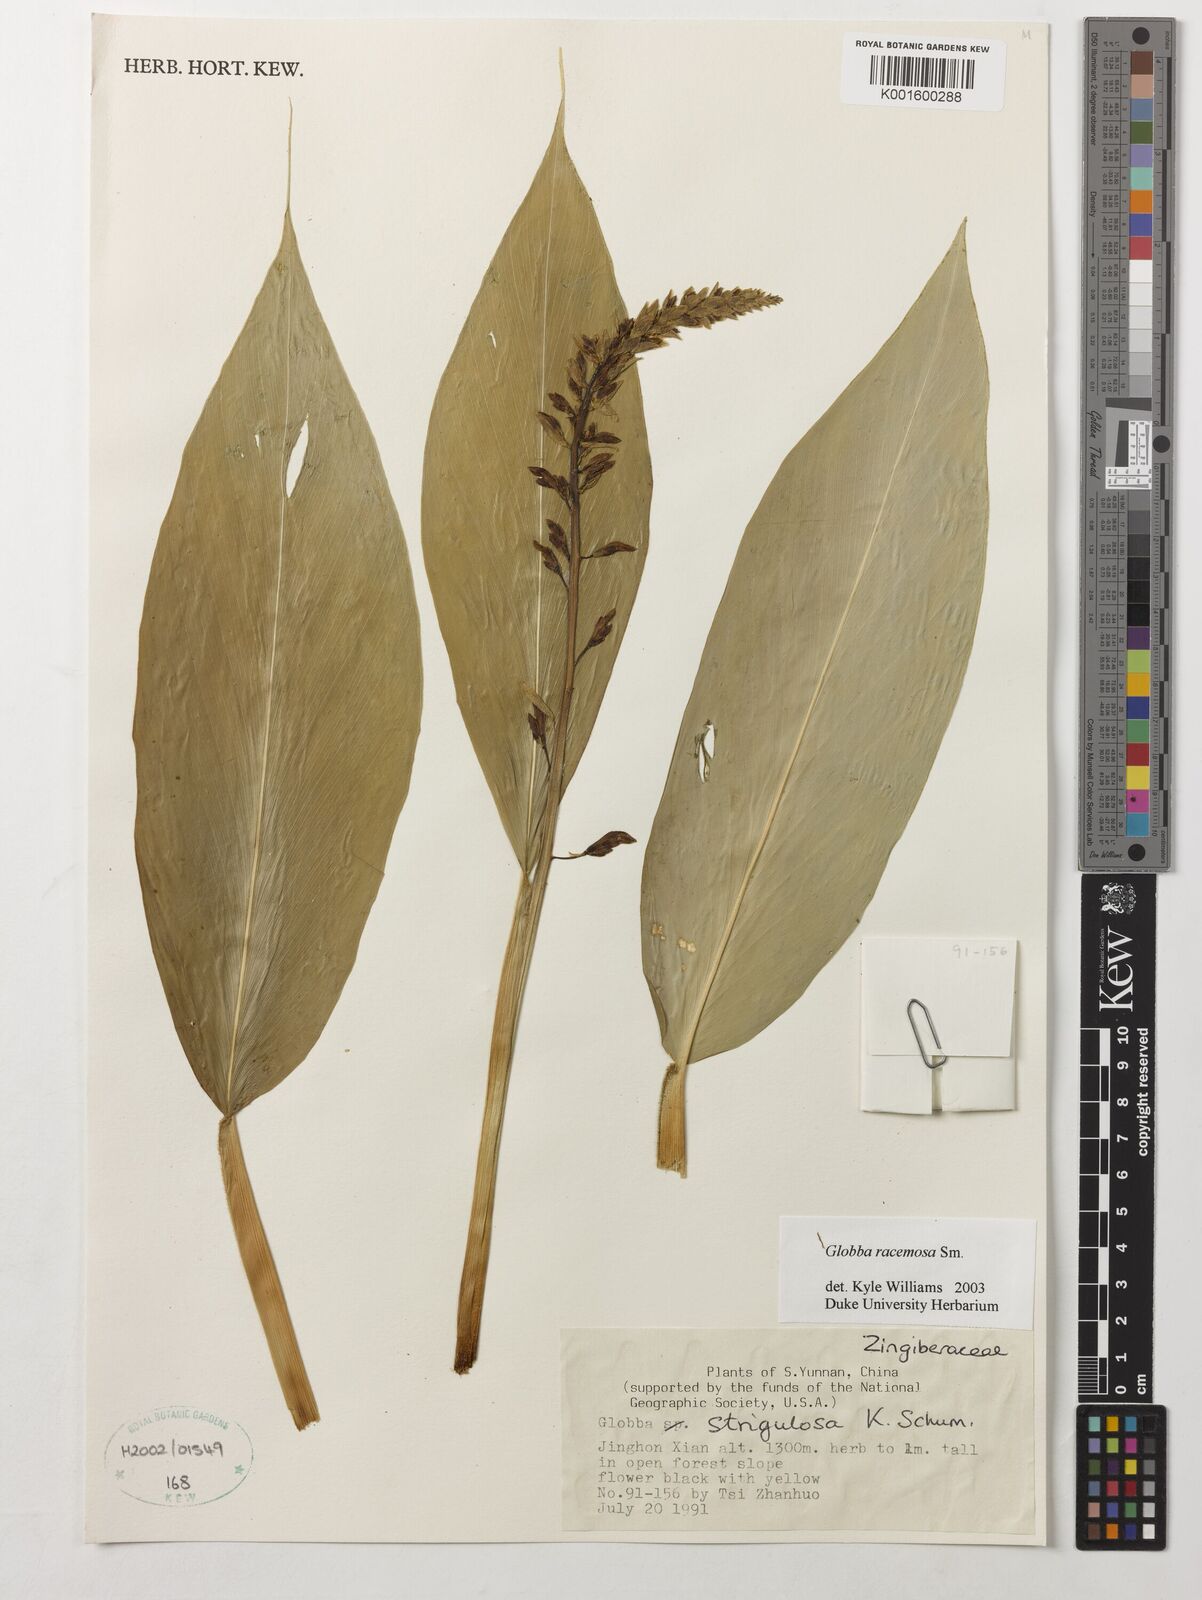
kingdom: Plantae
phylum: Tracheophyta
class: Liliopsida
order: Zingiberales
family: Zingiberaceae
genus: Globba
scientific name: Globba racemosa
